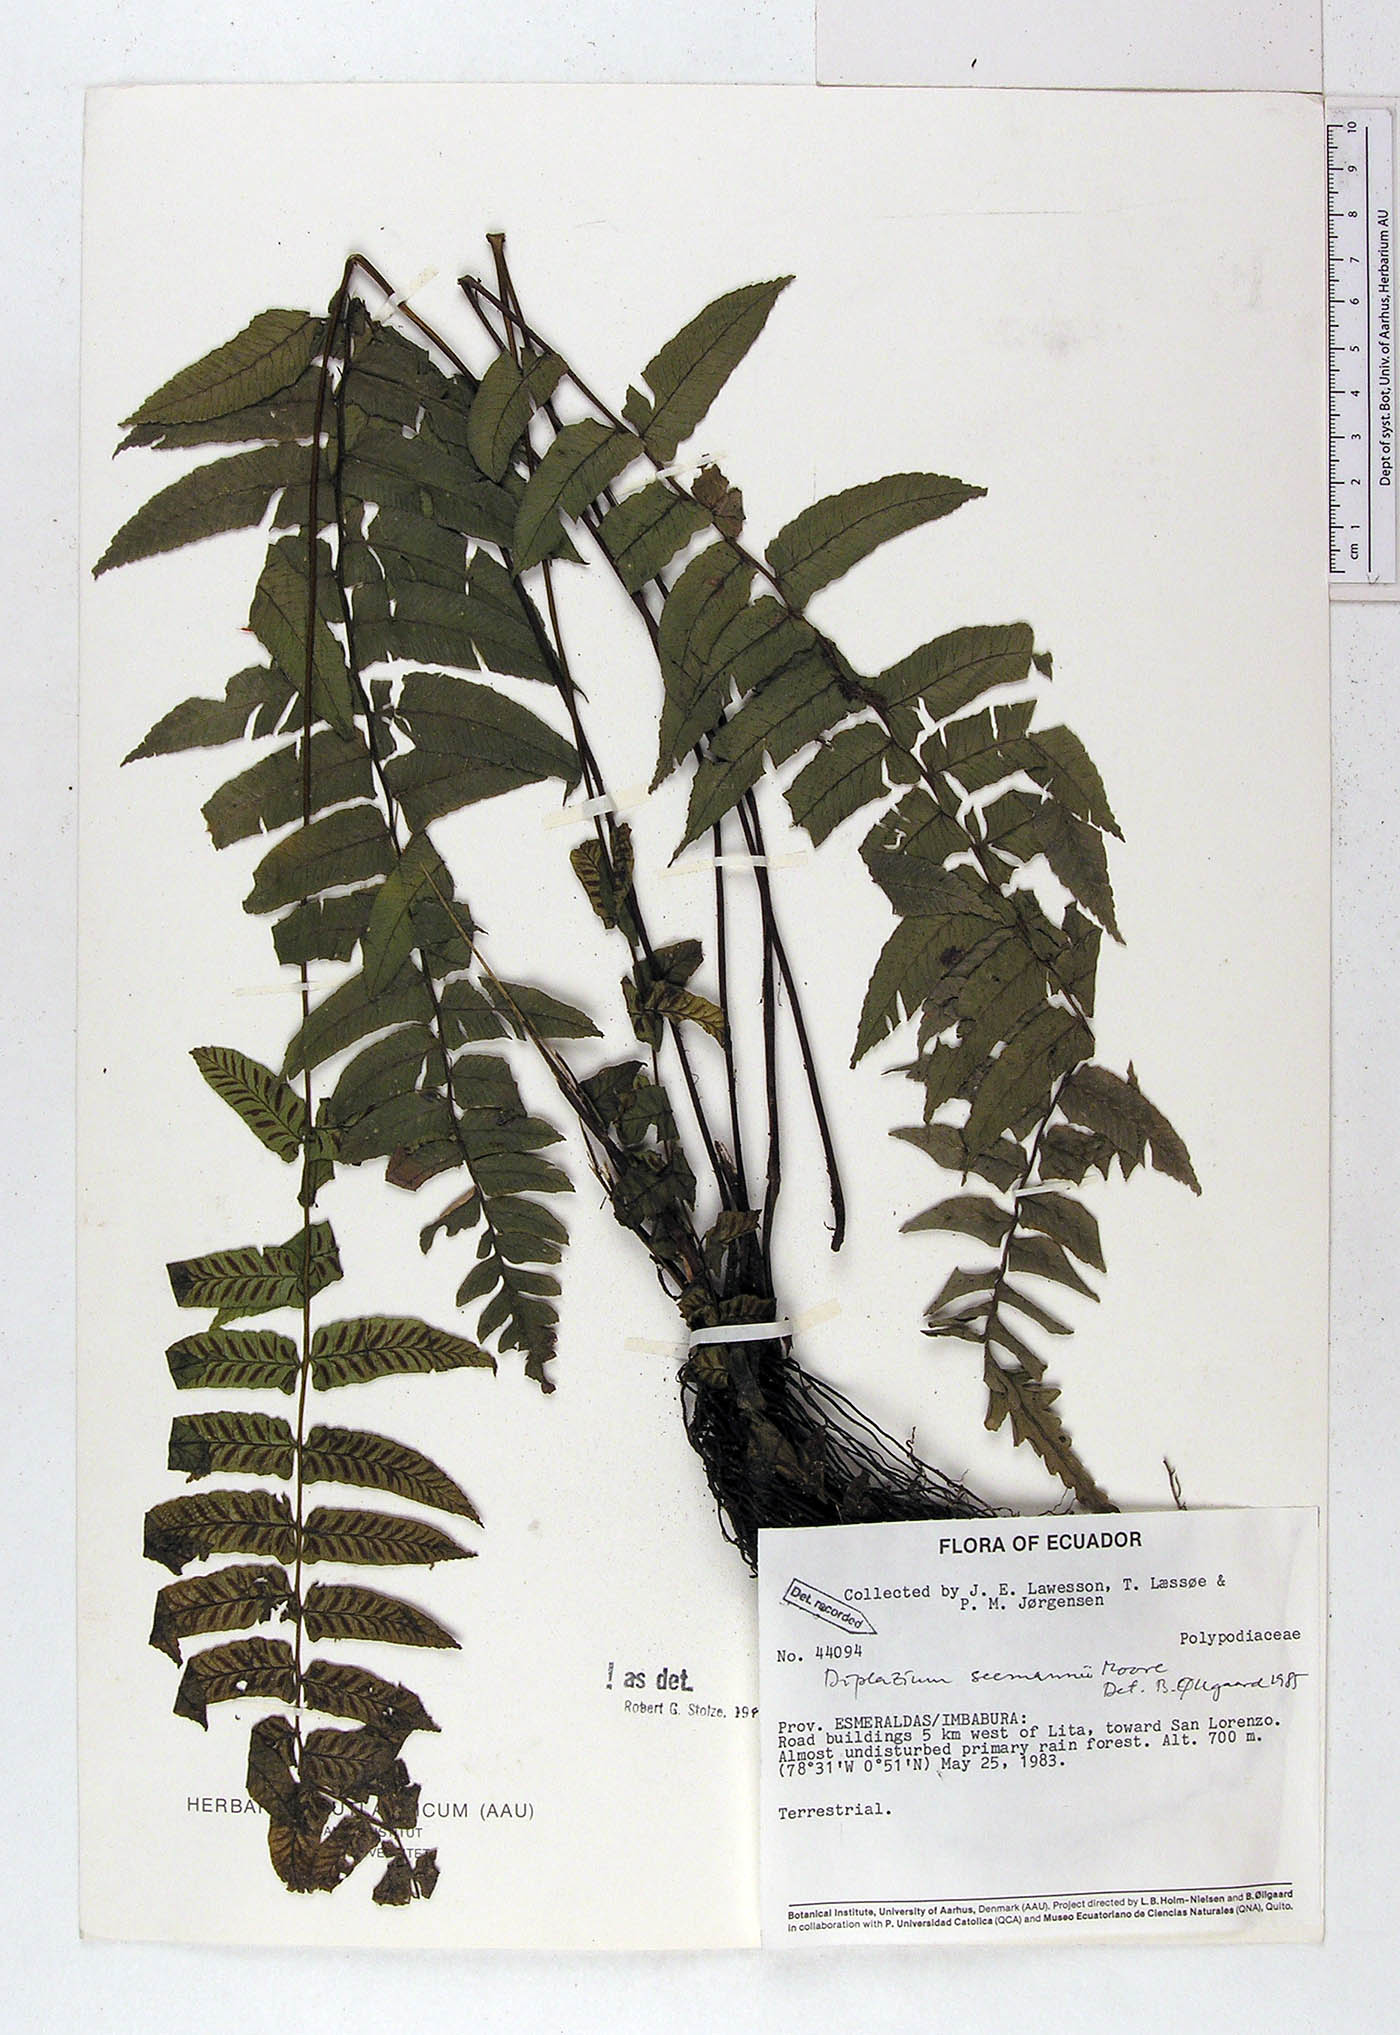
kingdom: Plantae
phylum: Tracheophyta
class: Polypodiopsida
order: Polypodiales
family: Athyriaceae
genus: Diplazium
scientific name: Diplazium seemannii
